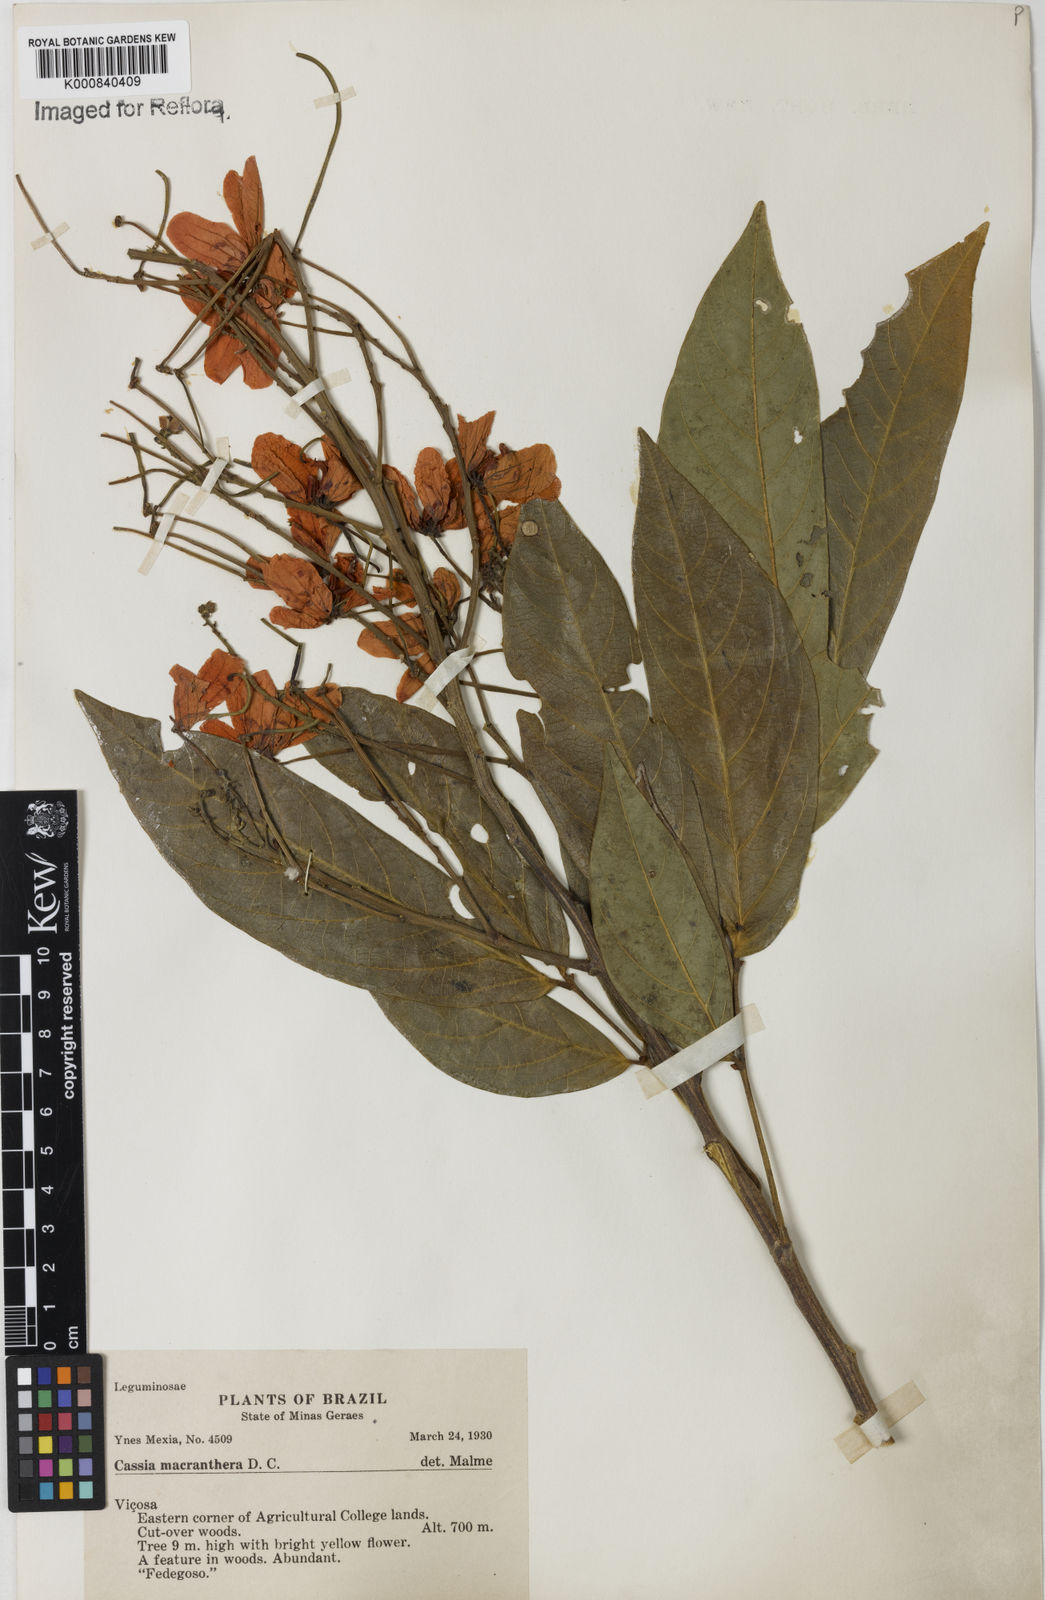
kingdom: Plantae
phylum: Tracheophyta
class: Magnoliopsida
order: Fabales
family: Fabaceae
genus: Senna
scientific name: Senna macranthera
